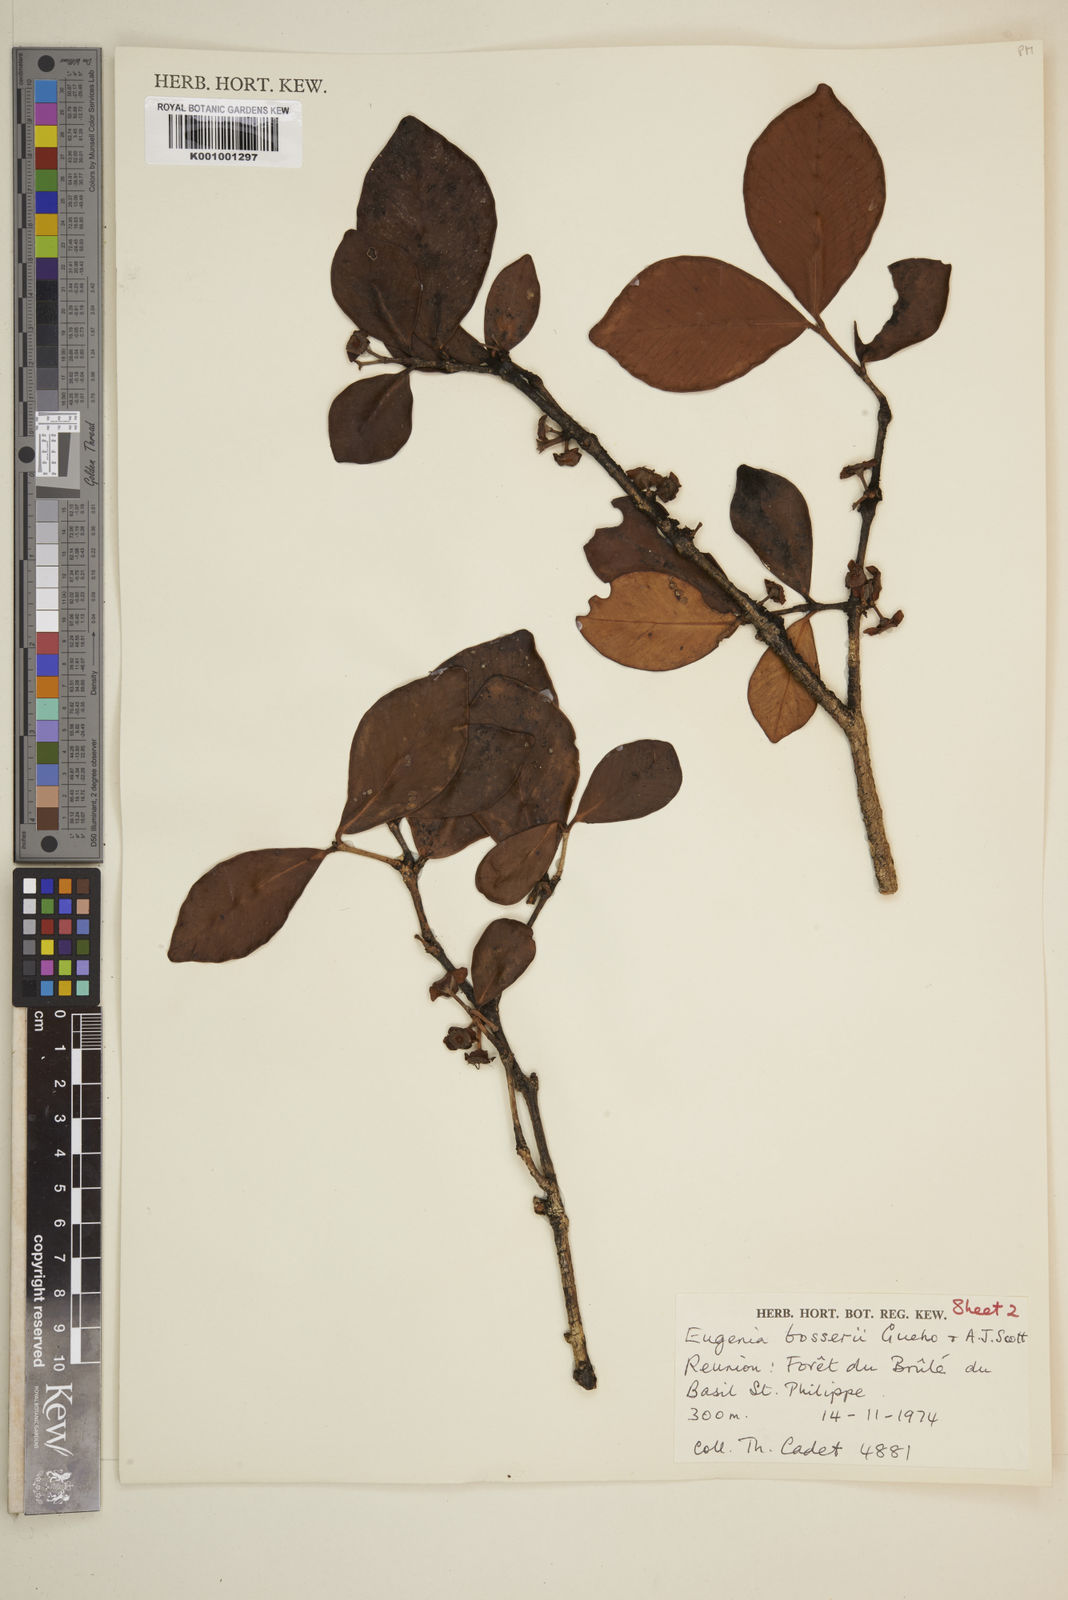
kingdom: Plantae
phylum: Tracheophyta
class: Magnoliopsida
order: Myrtales
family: Myrtaceae
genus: Eugenia
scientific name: Eugenia
